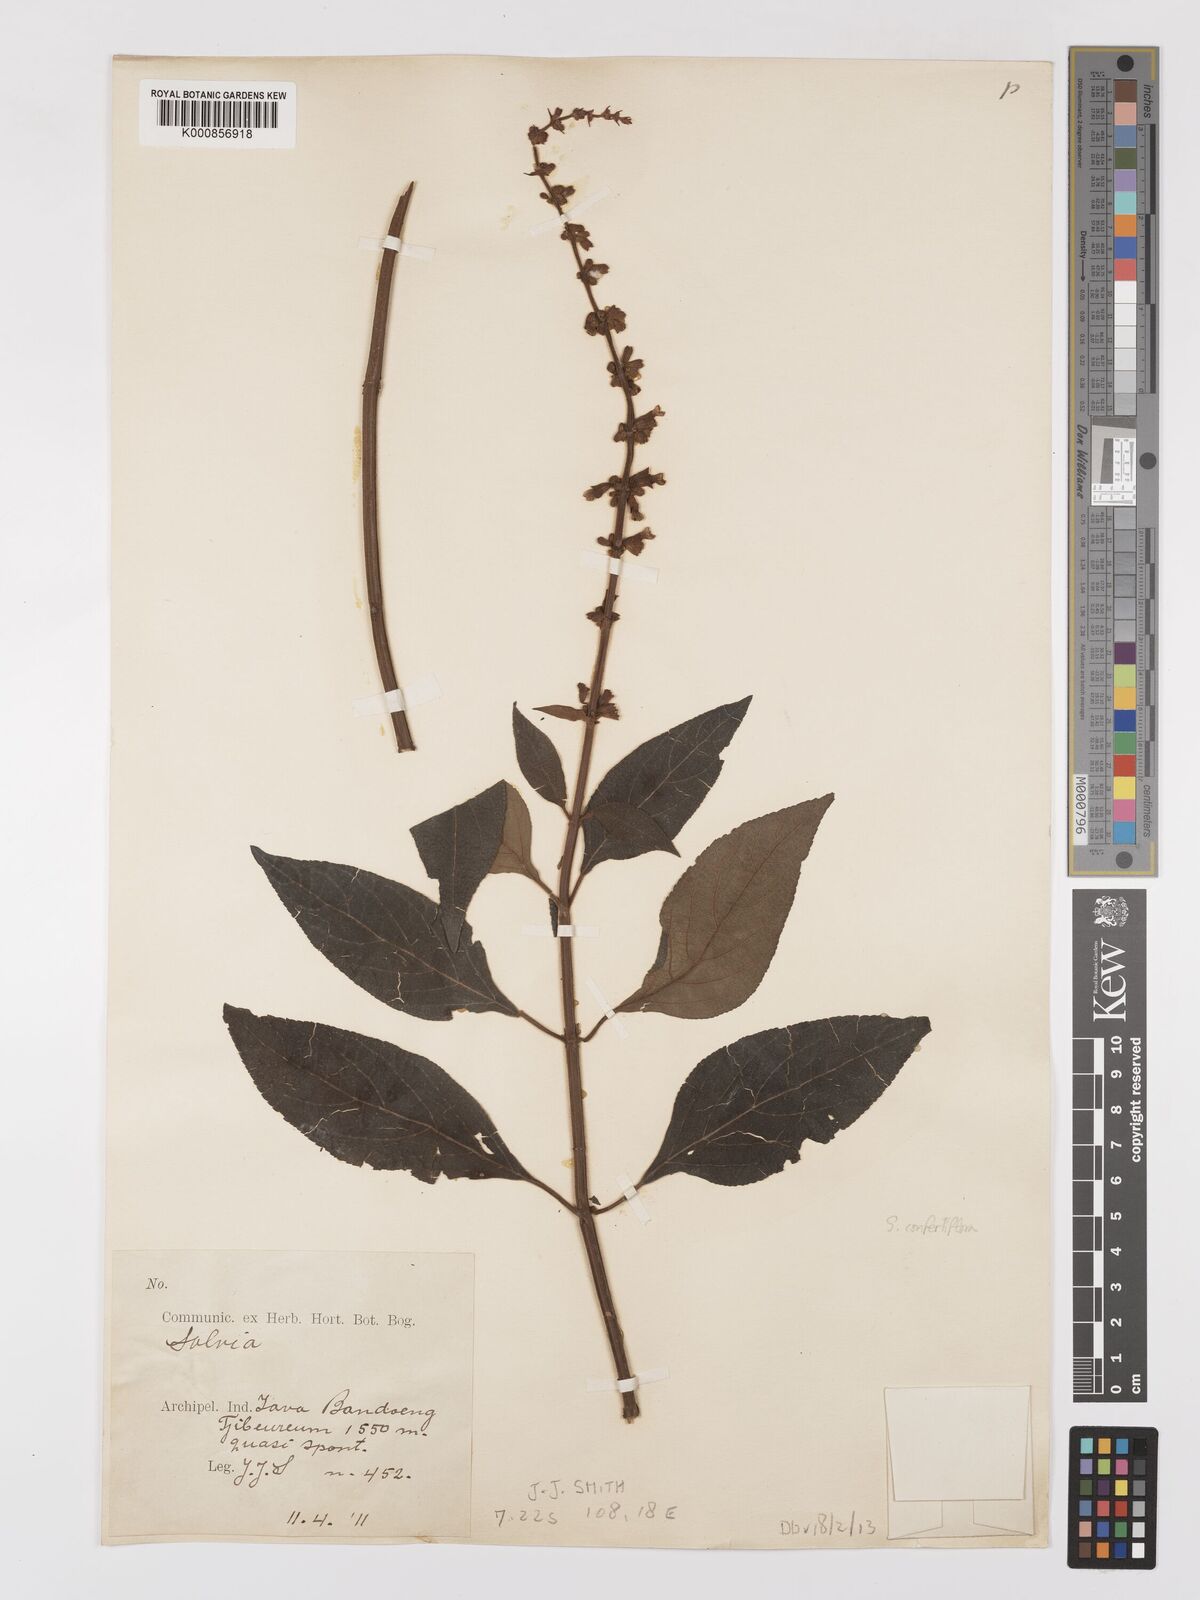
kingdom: Plantae
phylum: Tracheophyta
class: Magnoliopsida
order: Lamiales
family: Lamiaceae
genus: Salvia
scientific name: Salvia
